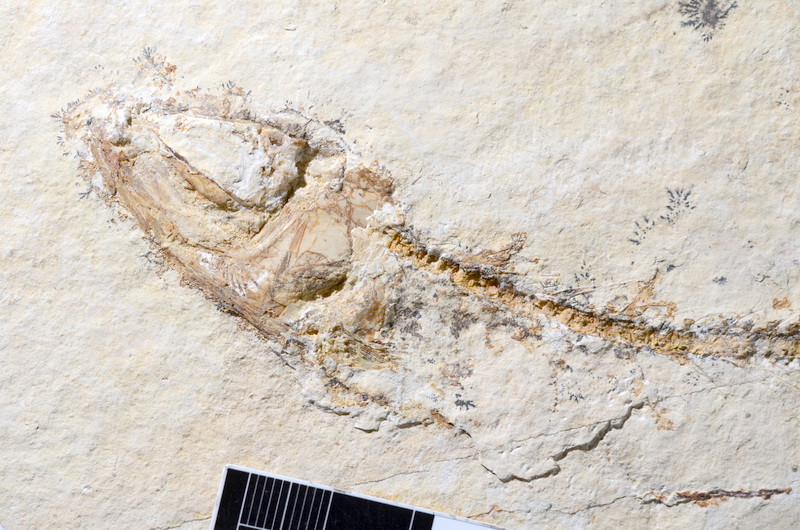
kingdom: Animalia
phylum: Chordata
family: Ascalaboidae
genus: Tharsis
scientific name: Tharsis dubius
